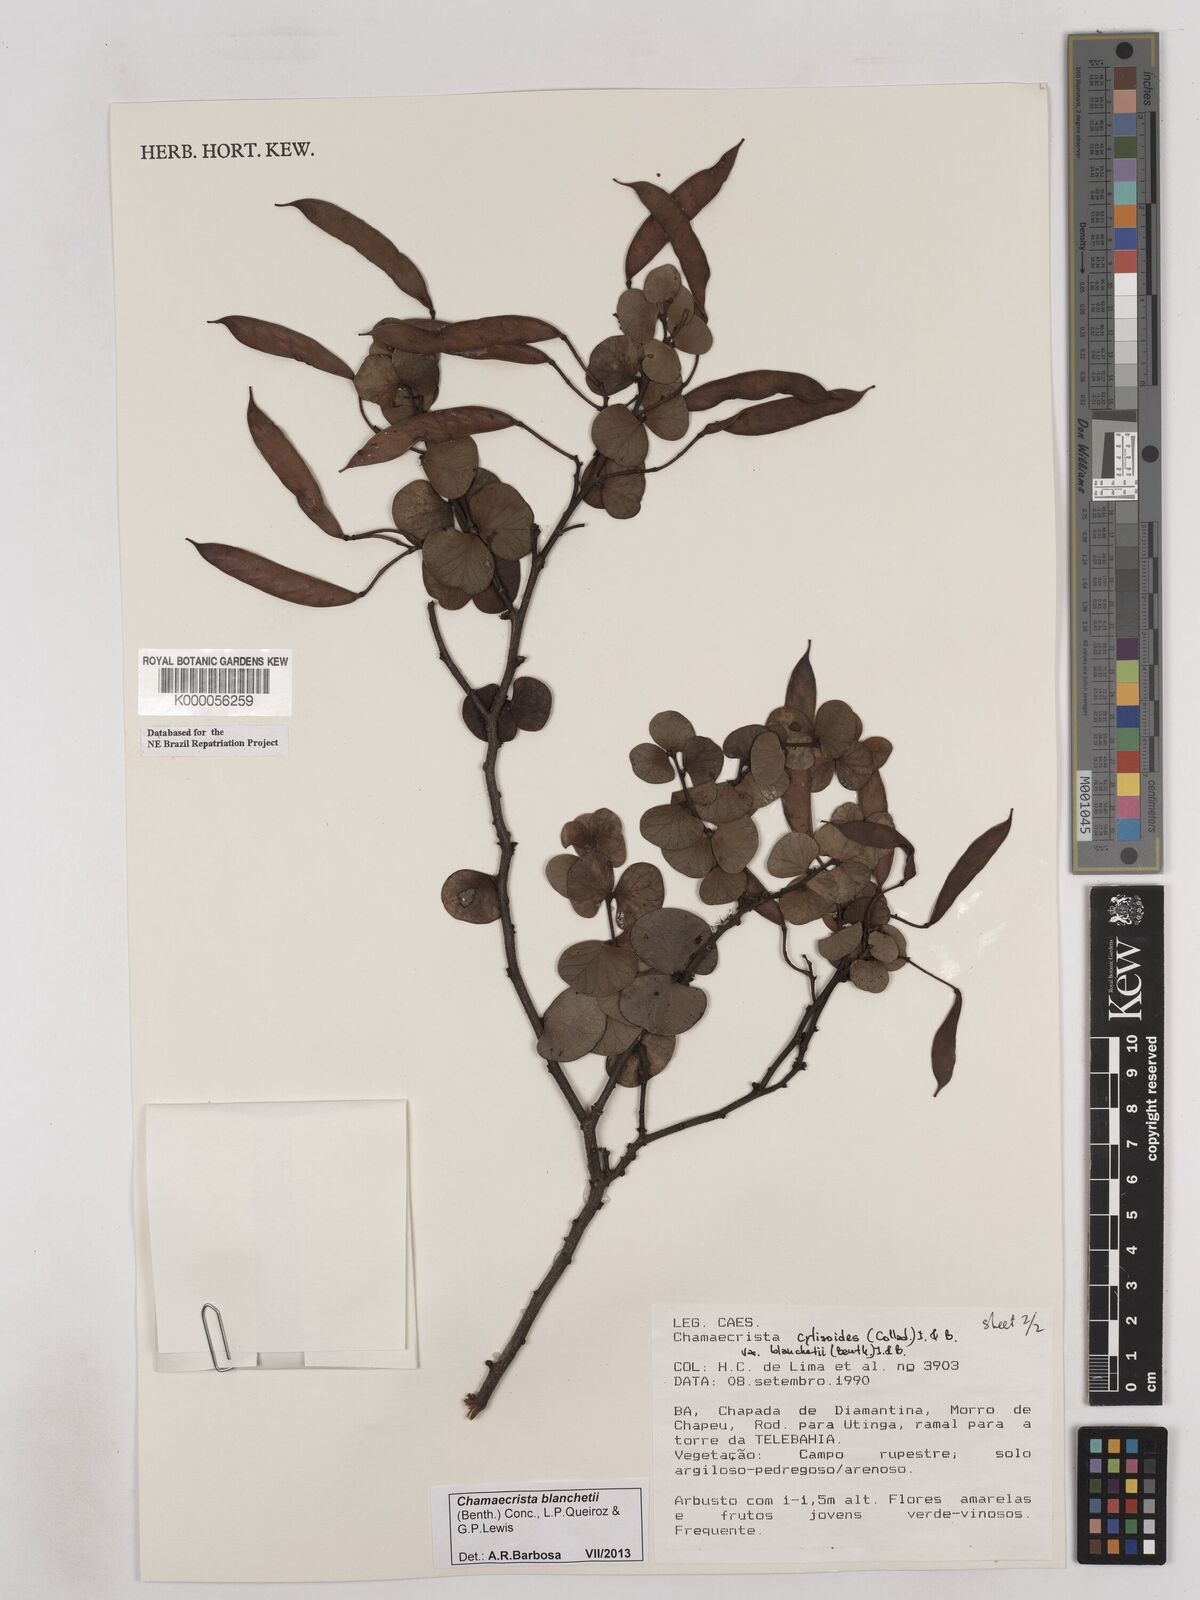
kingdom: Plantae
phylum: Tracheophyta
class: Magnoliopsida
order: Fabales
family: Fabaceae
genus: Chamaecrista
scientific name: Chamaecrista cytisoides
